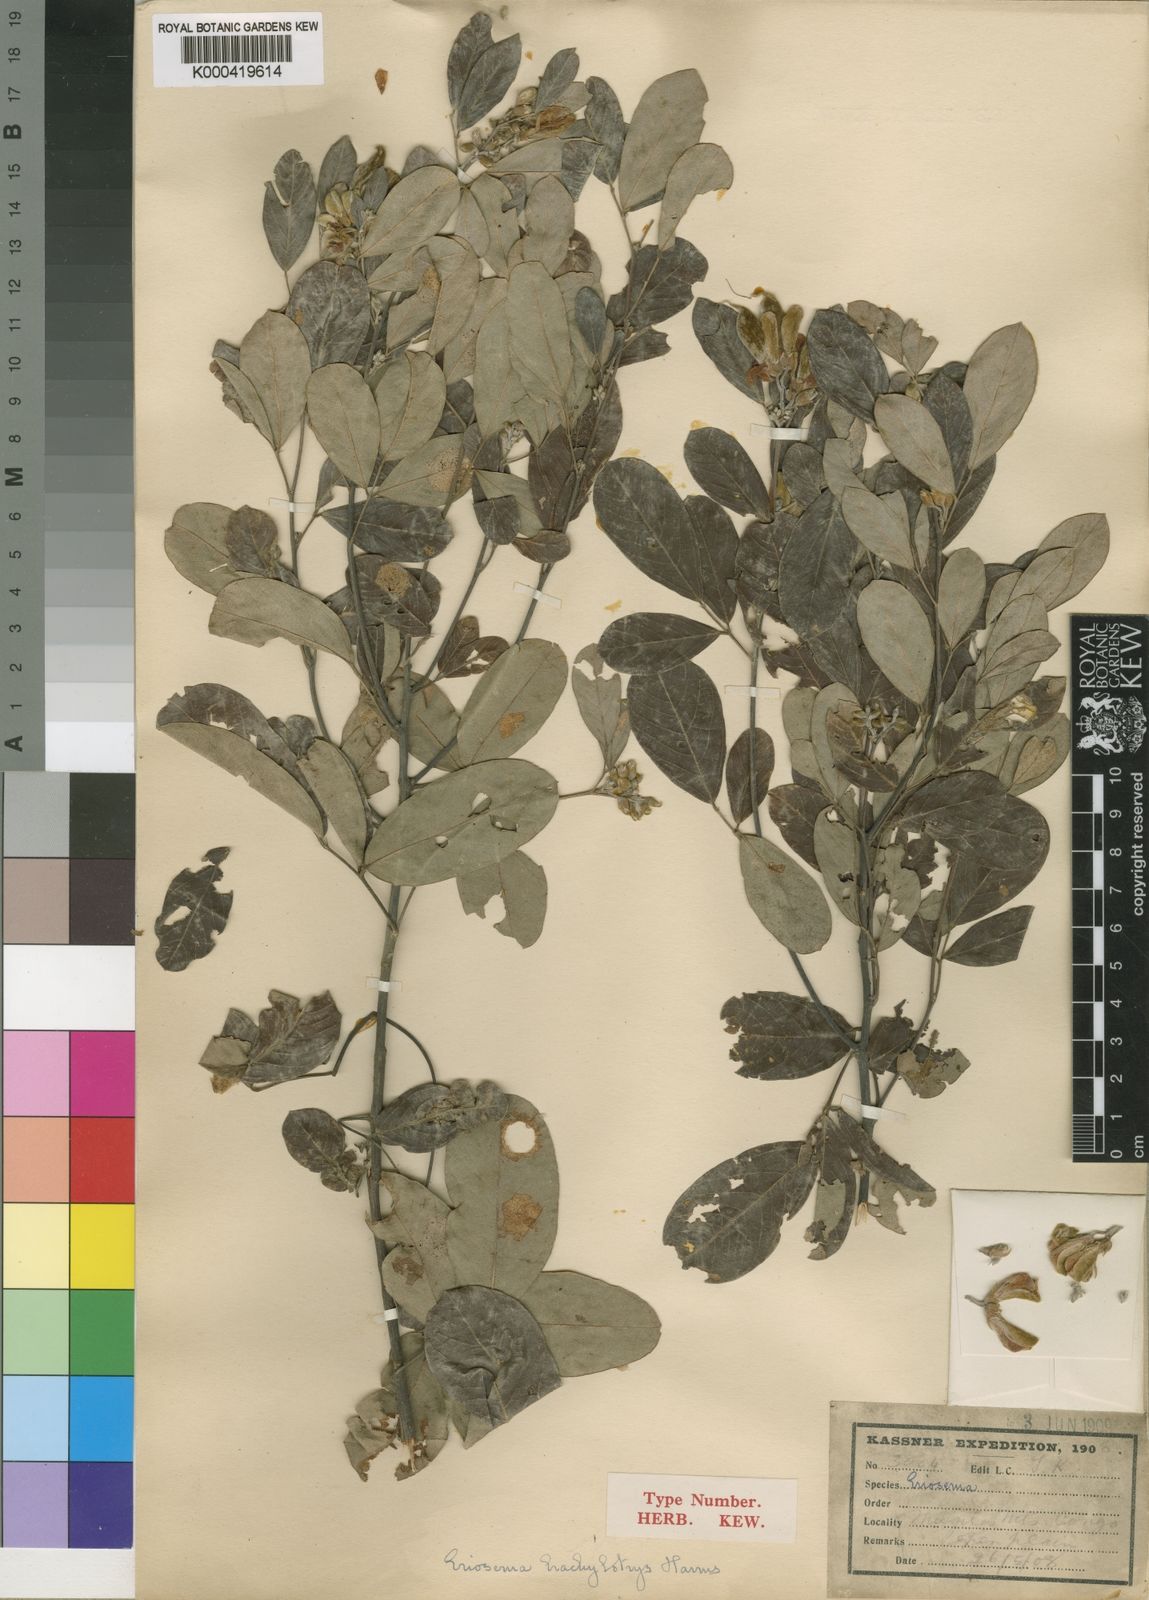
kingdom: Plantae
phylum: Tracheophyta
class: Magnoliopsida
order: Fabales
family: Fabaceae
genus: Eriosema
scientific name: Eriosema brachybotrys
